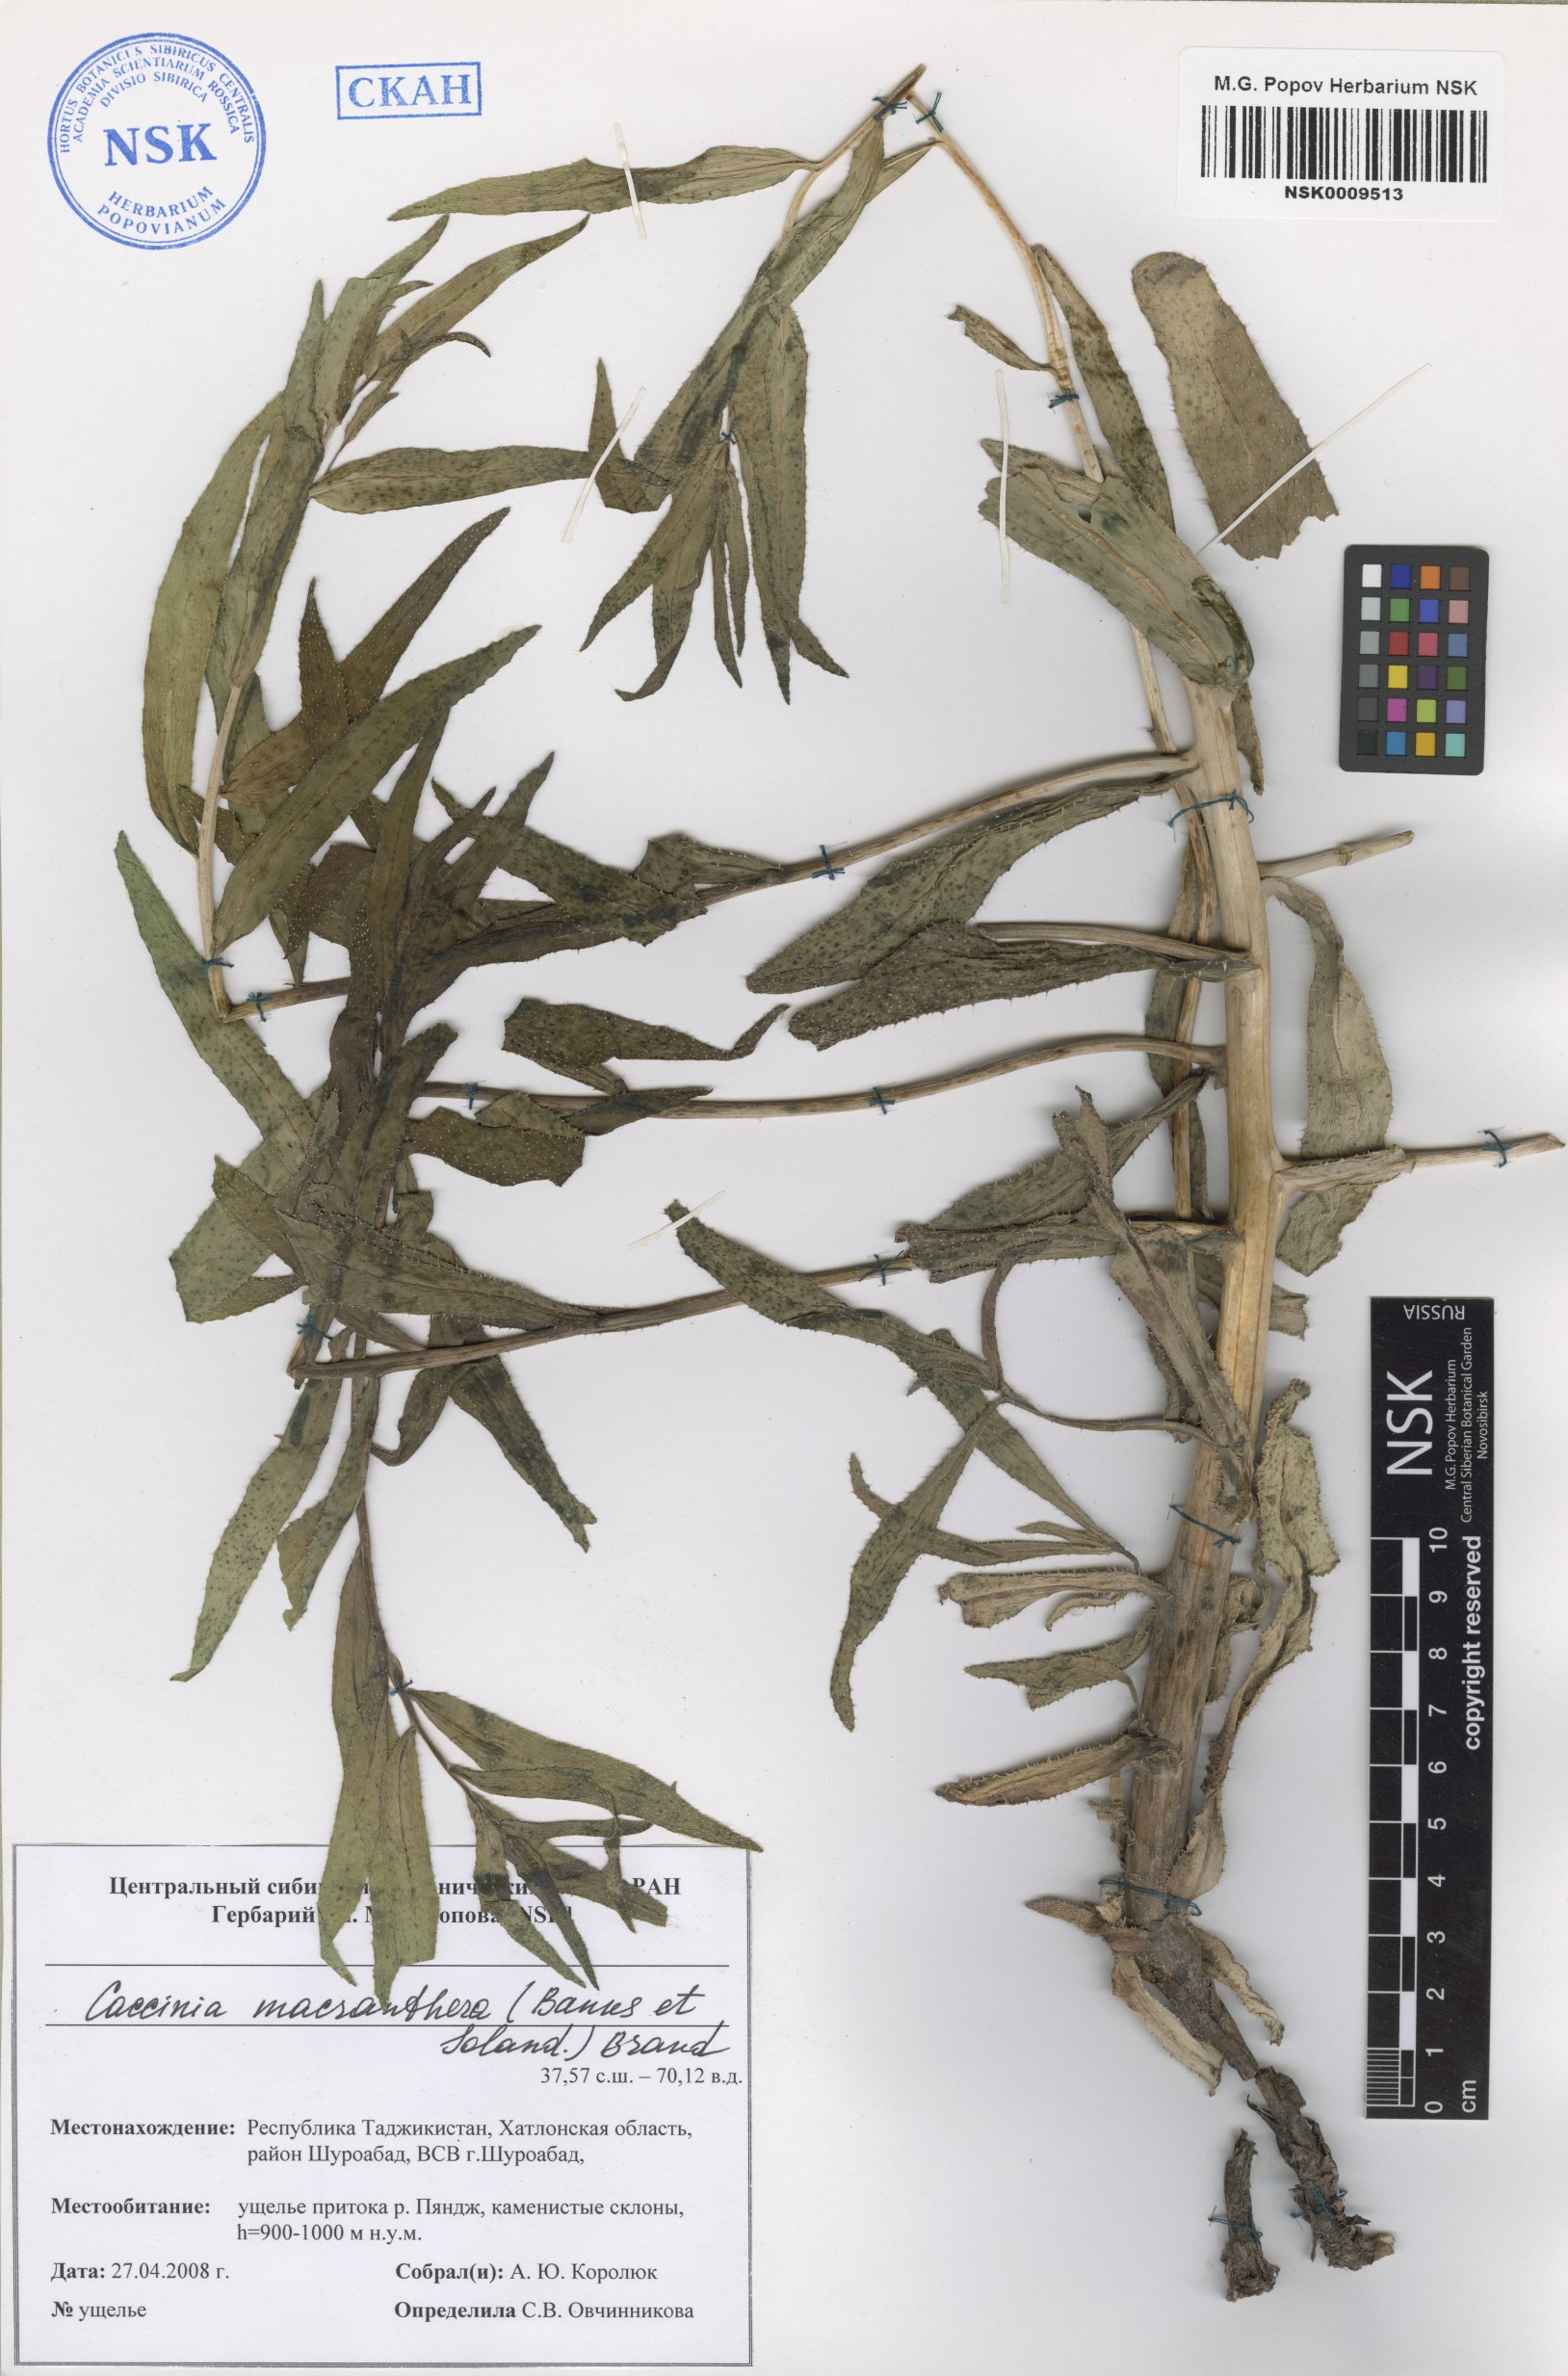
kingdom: Plantae
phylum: Tracheophyta
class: Magnoliopsida
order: Boraginales
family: Boraginaceae
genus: Caccinia
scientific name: Caccinia macranthera
